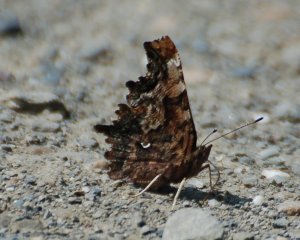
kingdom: Animalia
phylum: Arthropoda
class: Insecta
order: Lepidoptera
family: Nymphalidae
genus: Polygonia
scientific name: Polygonia faunus
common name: Green Comma
